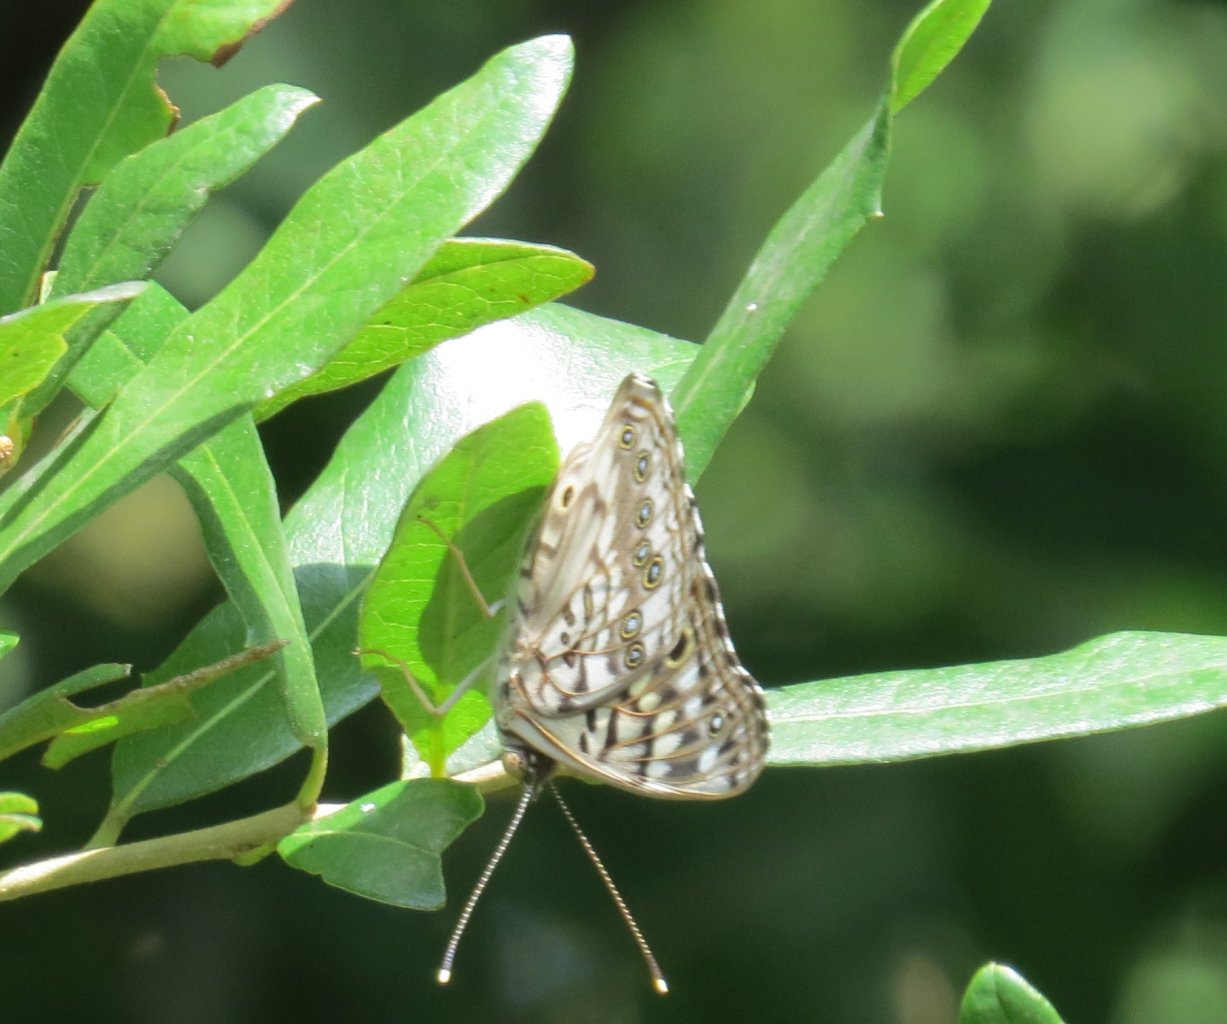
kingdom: Animalia
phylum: Arthropoda
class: Insecta
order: Lepidoptera
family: Nymphalidae
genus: Asterocampa
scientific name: Asterocampa celtis
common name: Hackberry Emperor
